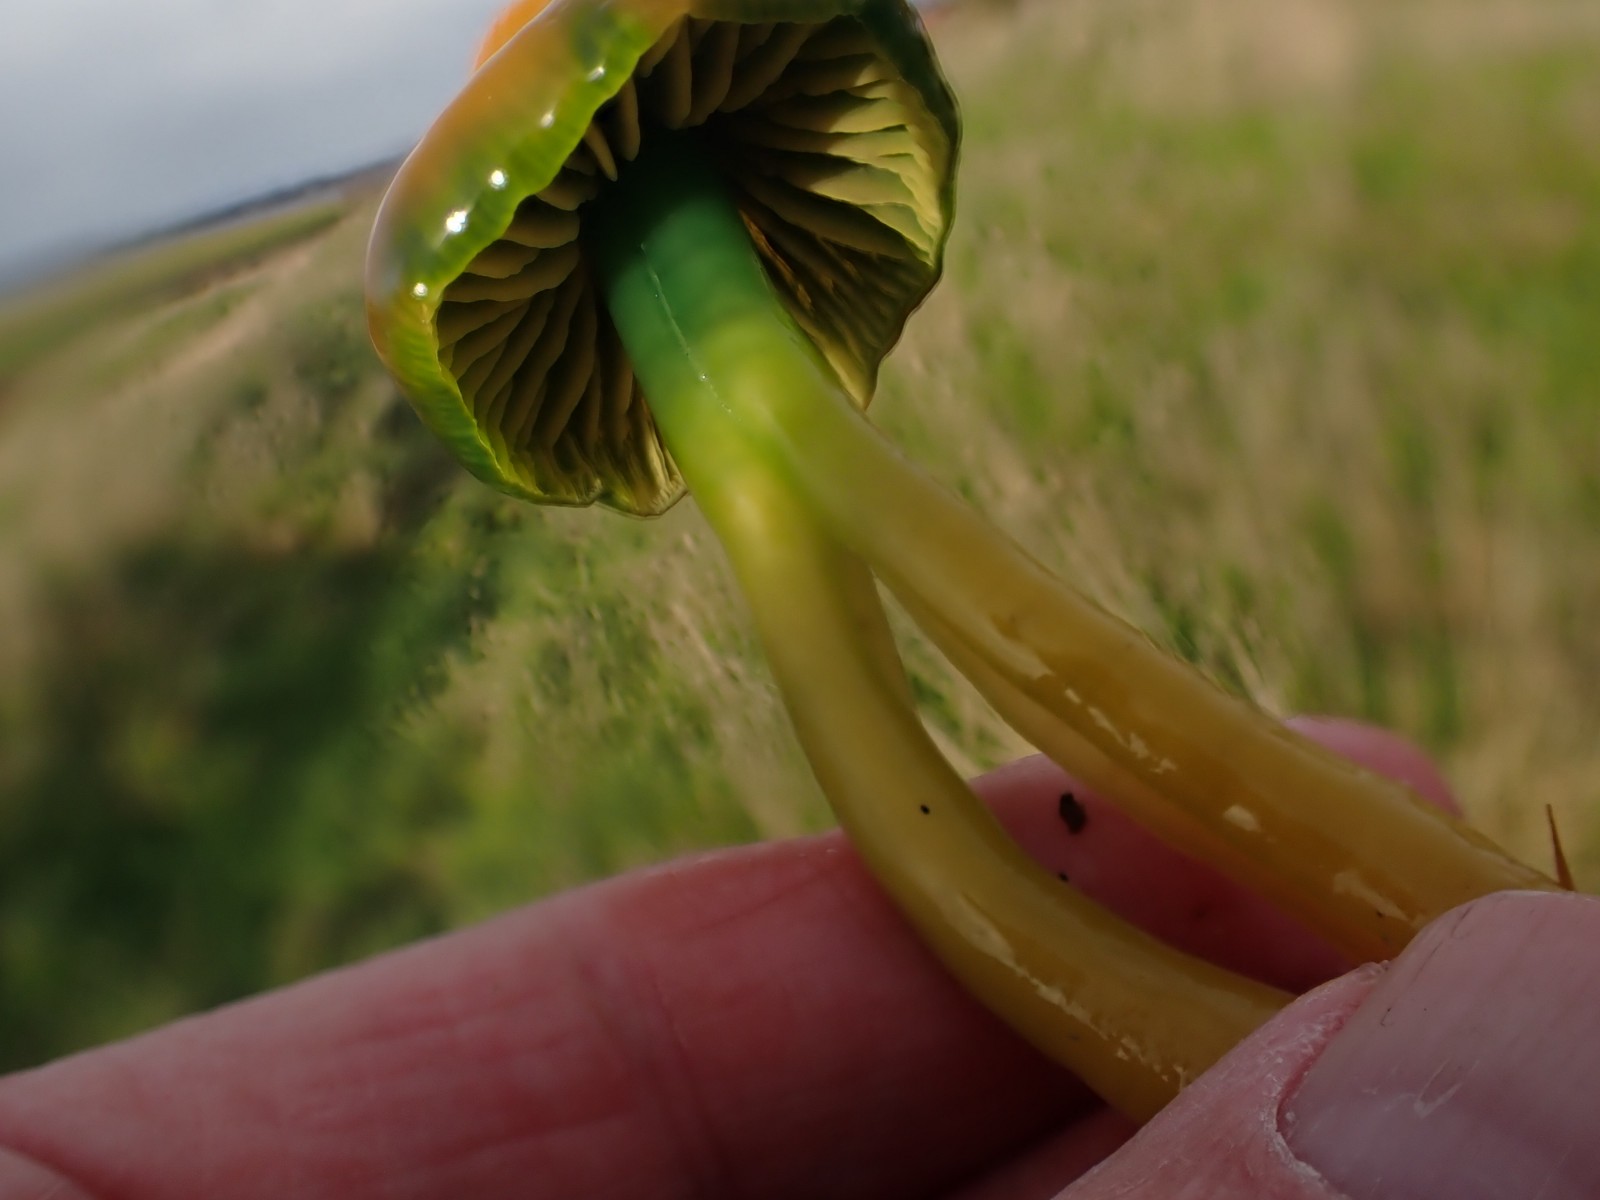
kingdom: Fungi
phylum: Basidiomycota
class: Agaricomycetes
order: Agaricales
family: Hygrophoraceae
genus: Gliophorus
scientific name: Gliophorus psittacinus
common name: papegøje-vokshat
